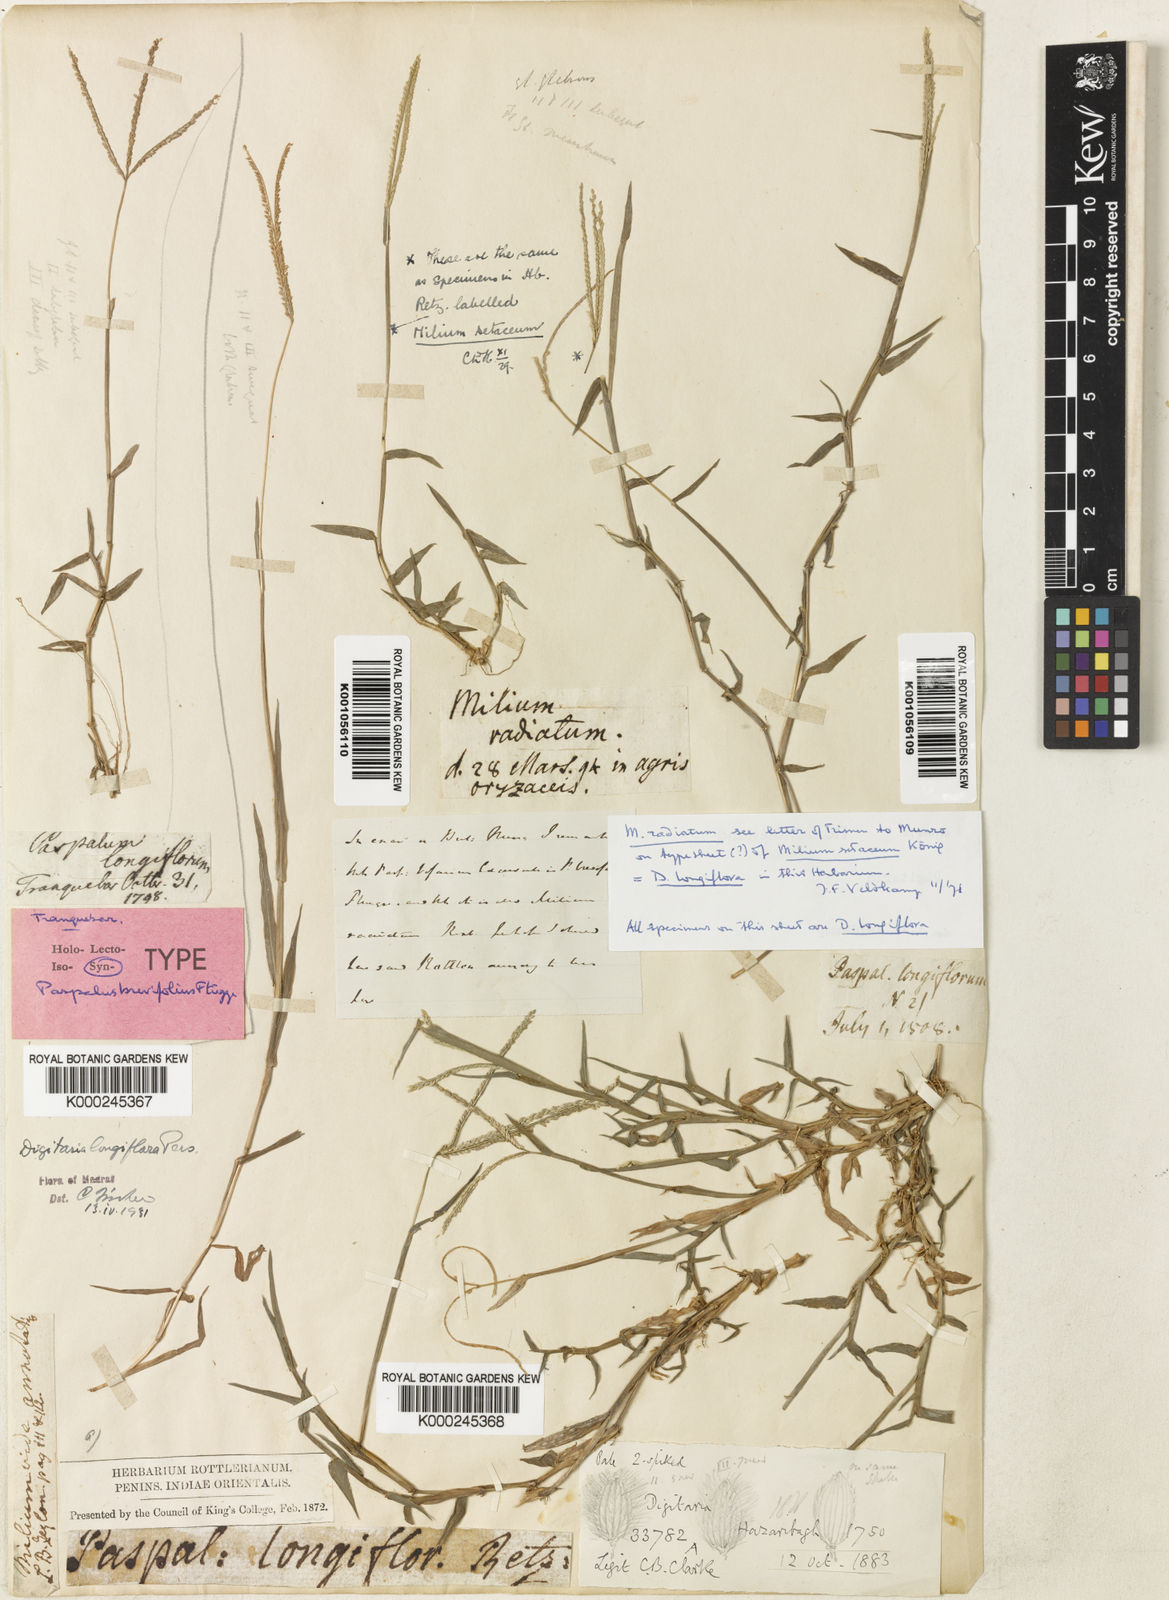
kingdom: Plantae
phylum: Tracheophyta
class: Liliopsida
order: Poales
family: Poaceae
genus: Digitaria
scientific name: Digitaria longiflora
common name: Wire crabgrass
